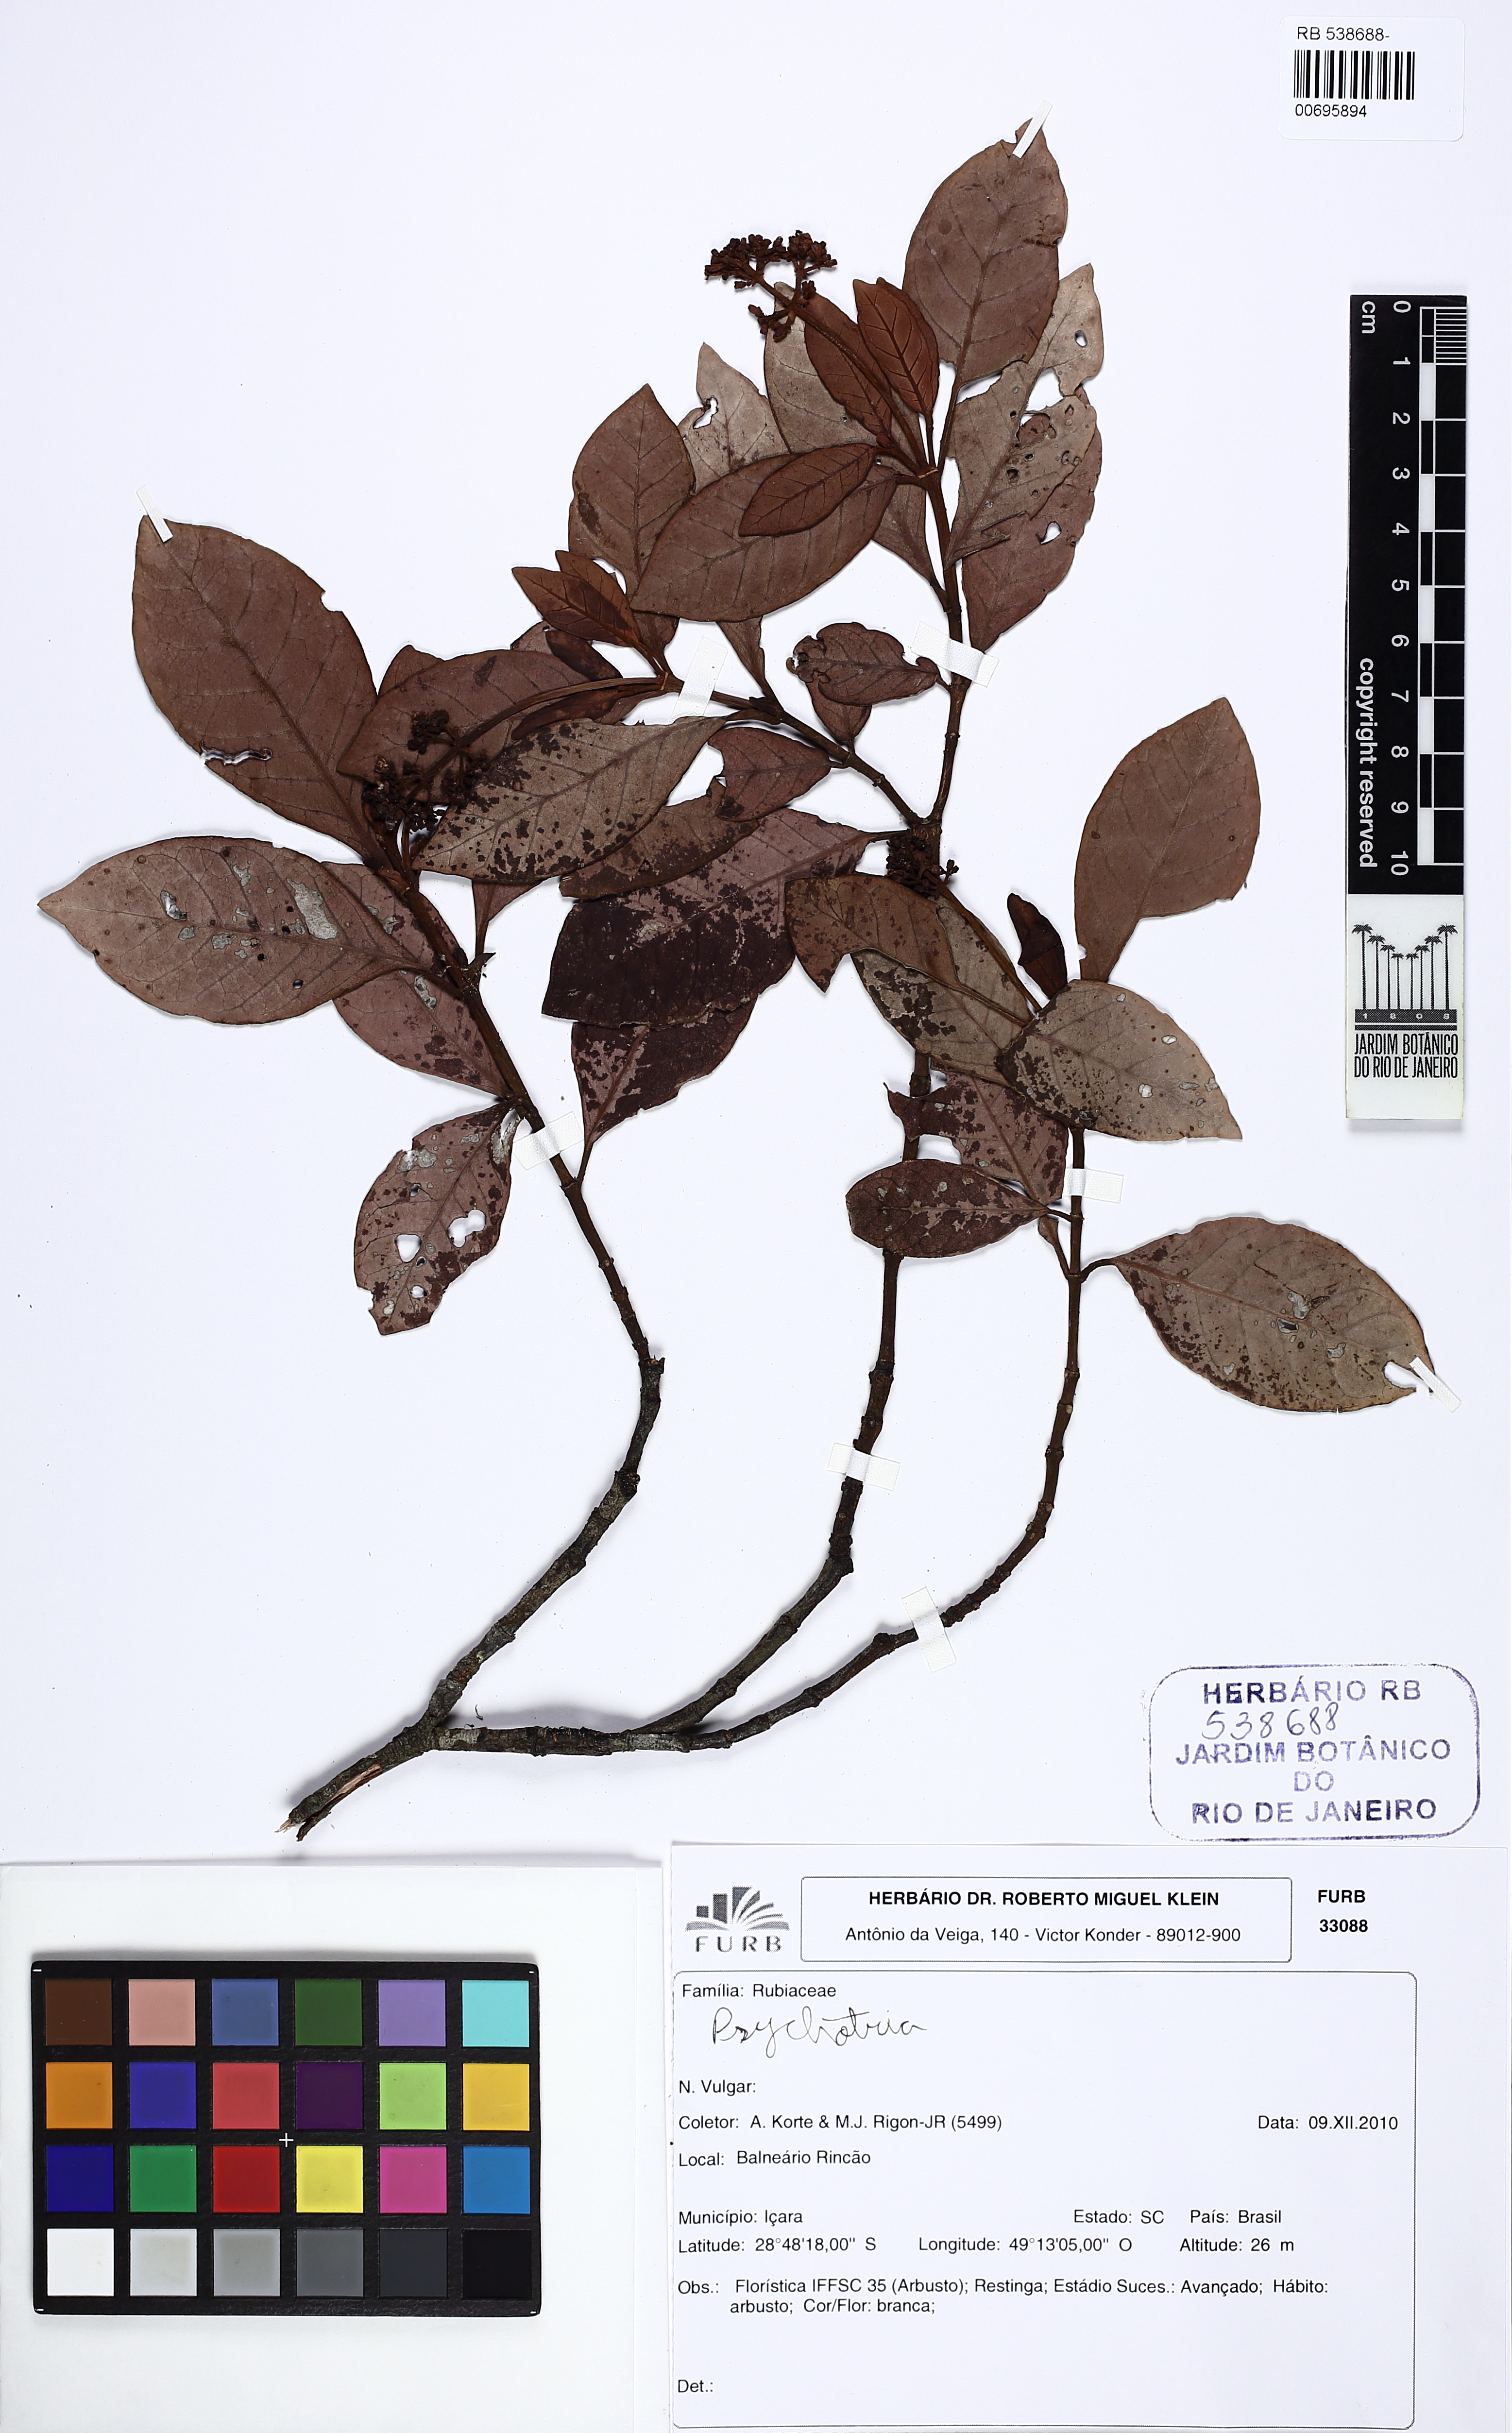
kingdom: Plantae
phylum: Tracheophyta
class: Magnoliopsida
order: Gentianales
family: Rubiaceae
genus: Psychotria
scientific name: Psychotria fractistipula
